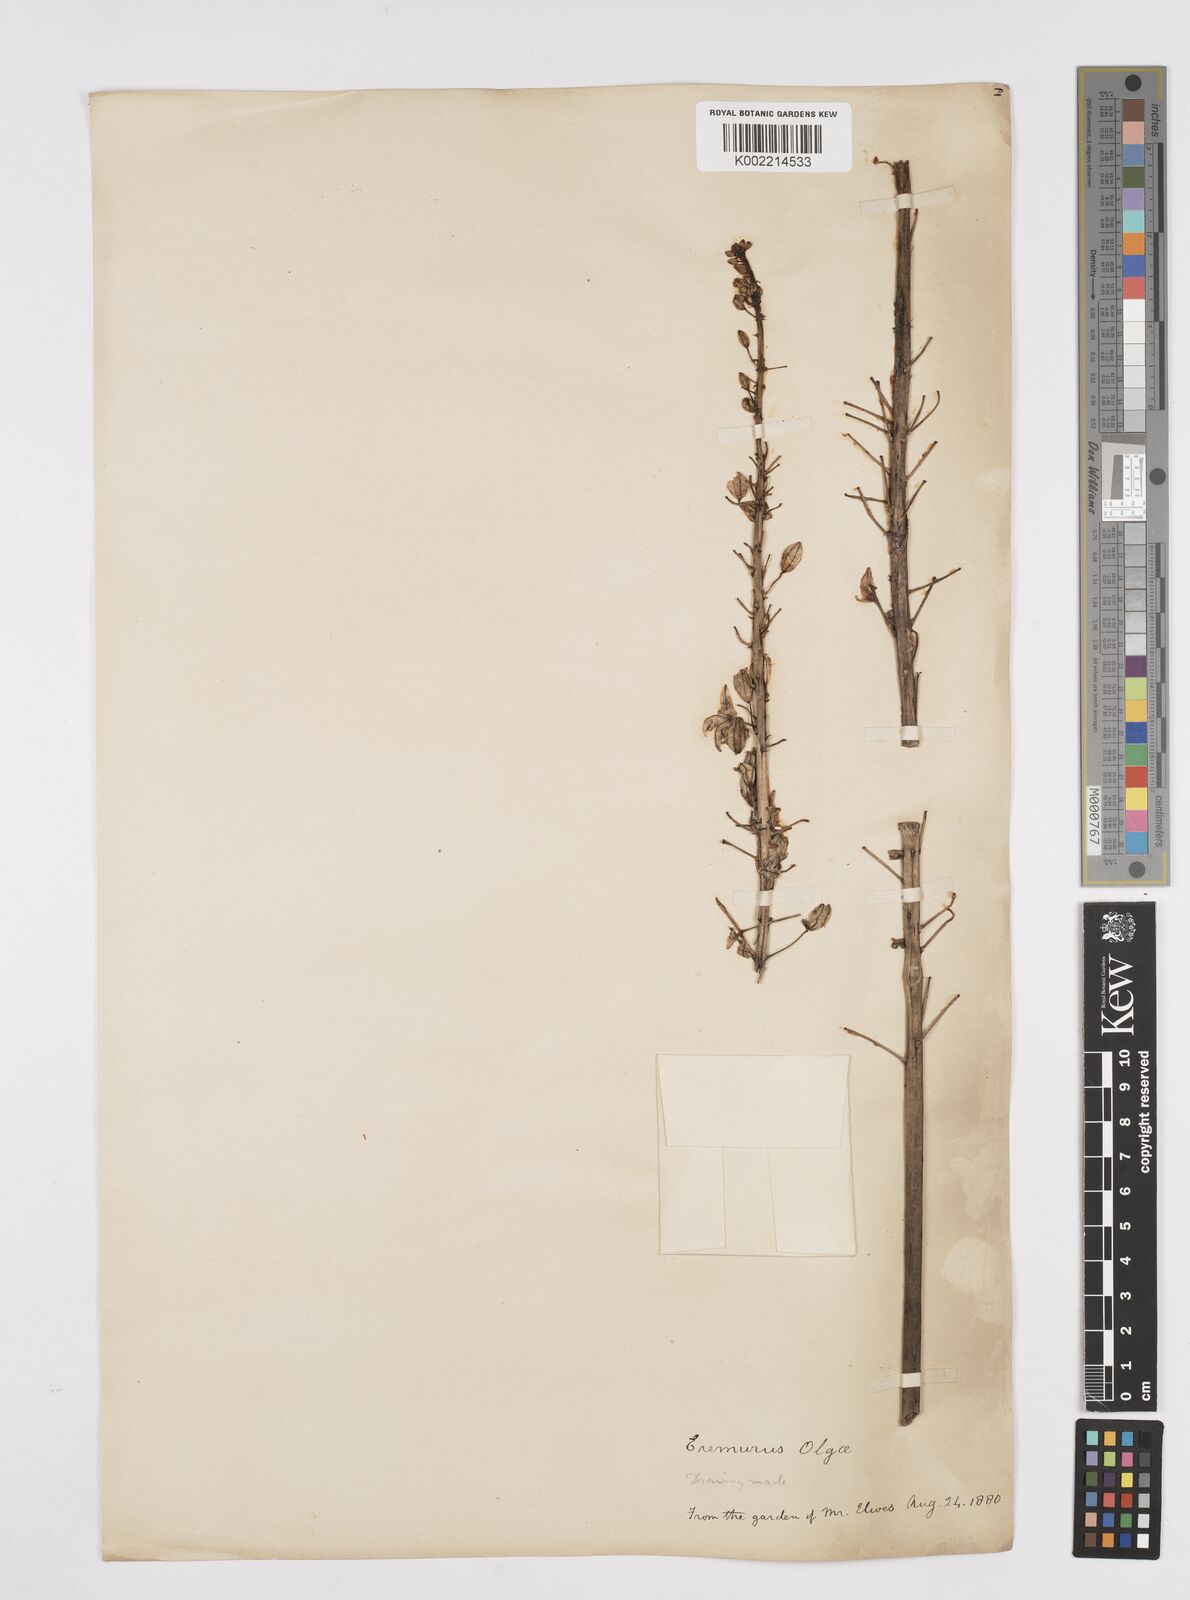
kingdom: Plantae
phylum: Tracheophyta
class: Liliopsida
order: Asparagales
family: Asphodelaceae
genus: Eremurus
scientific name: Eremurus olgae
